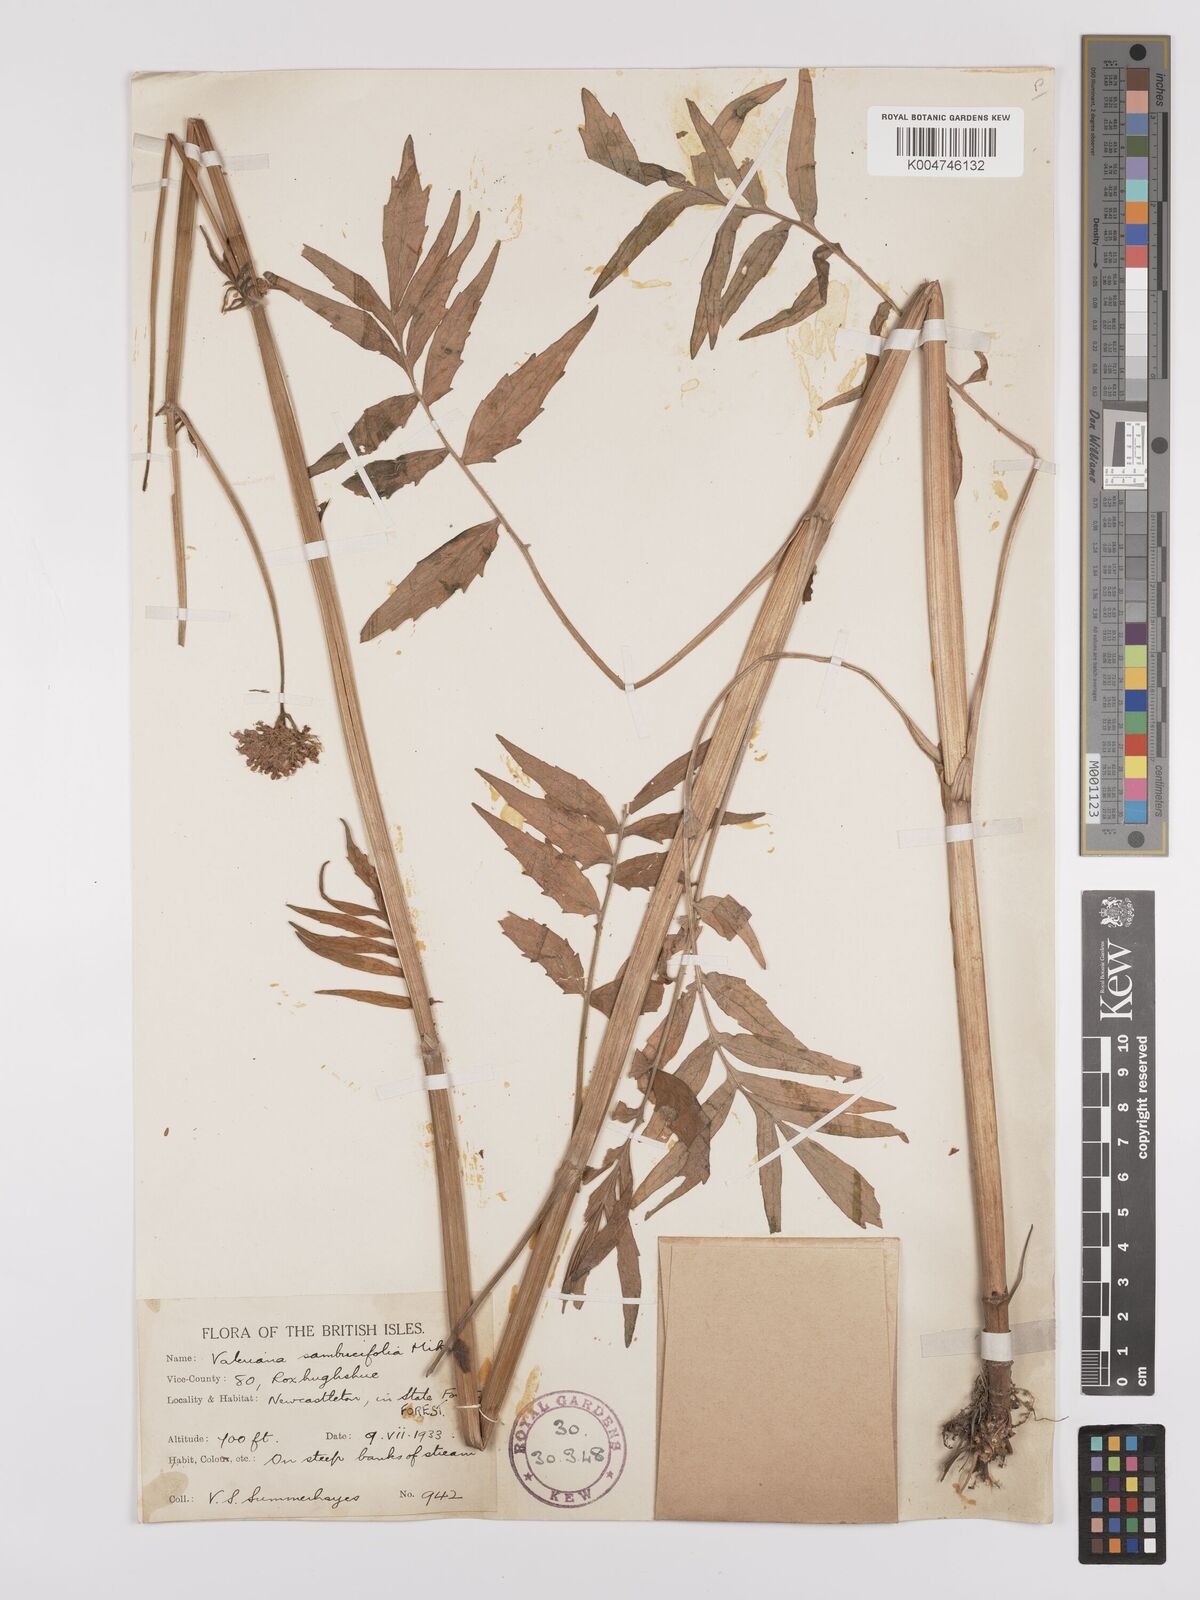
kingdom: Plantae
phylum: Tracheophyta
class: Magnoliopsida
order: Dipsacales
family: Caprifoliaceae
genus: Valeriana
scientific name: Valeriana excelsa
